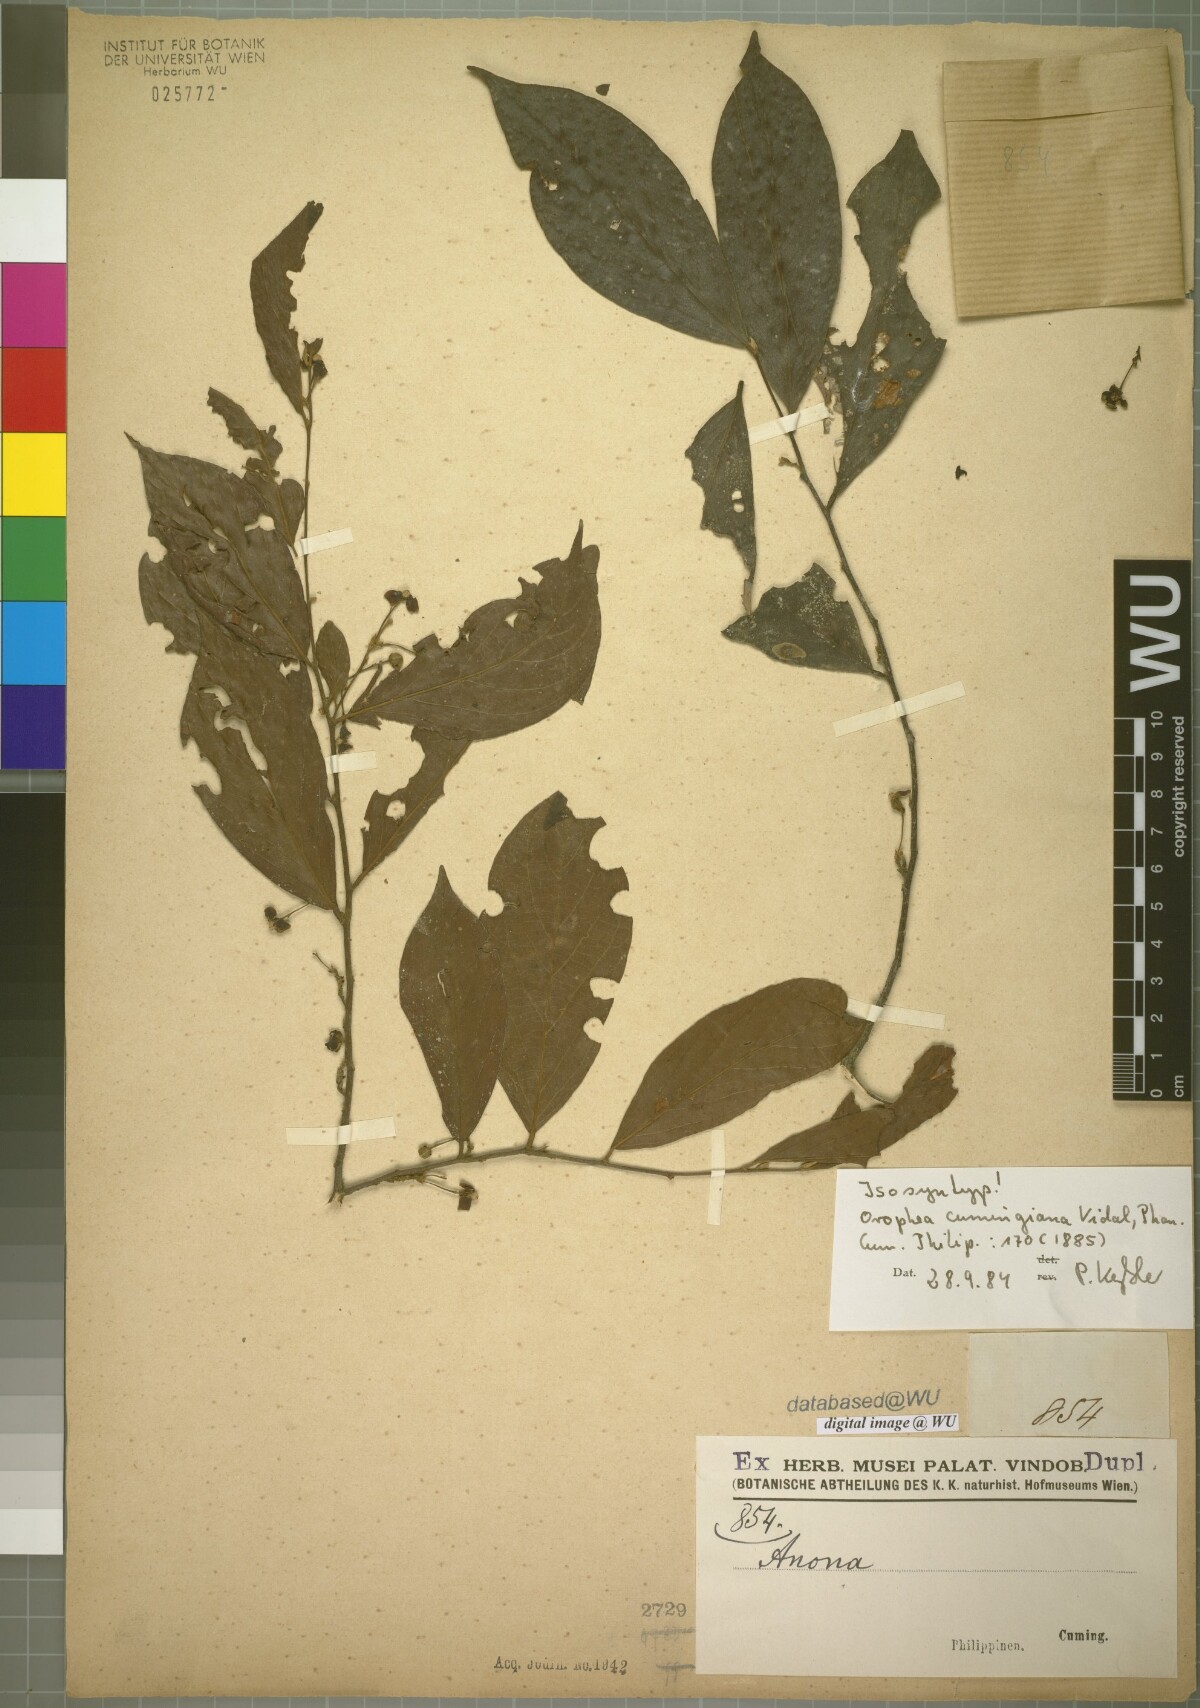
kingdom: Plantae
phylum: Tracheophyta
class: Magnoliopsida
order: Magnoliales
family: Annonaceae
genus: Orophea
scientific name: Orophea cumingiana
